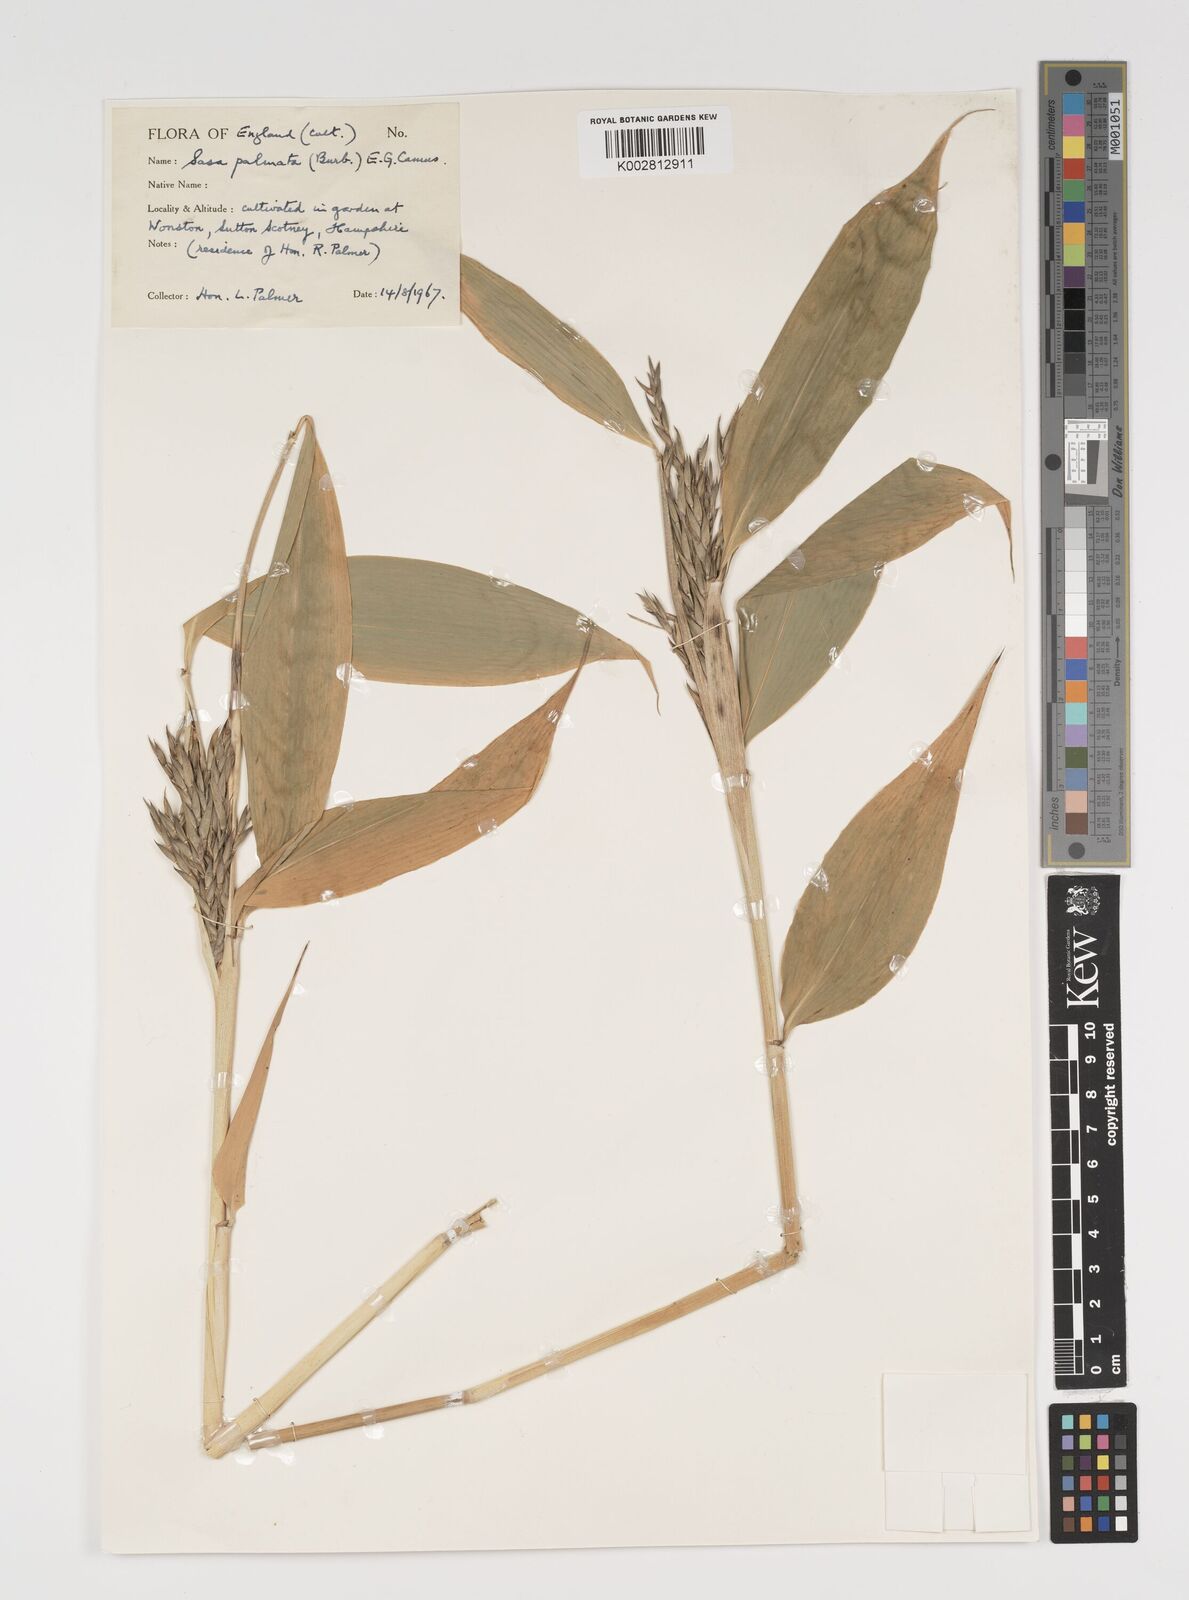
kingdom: Plantae
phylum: Tracheophyta
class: Liliopsida
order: Poales
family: Poaceae
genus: Sasa
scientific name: Sasa palmata
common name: Broad-leaved bamboo
